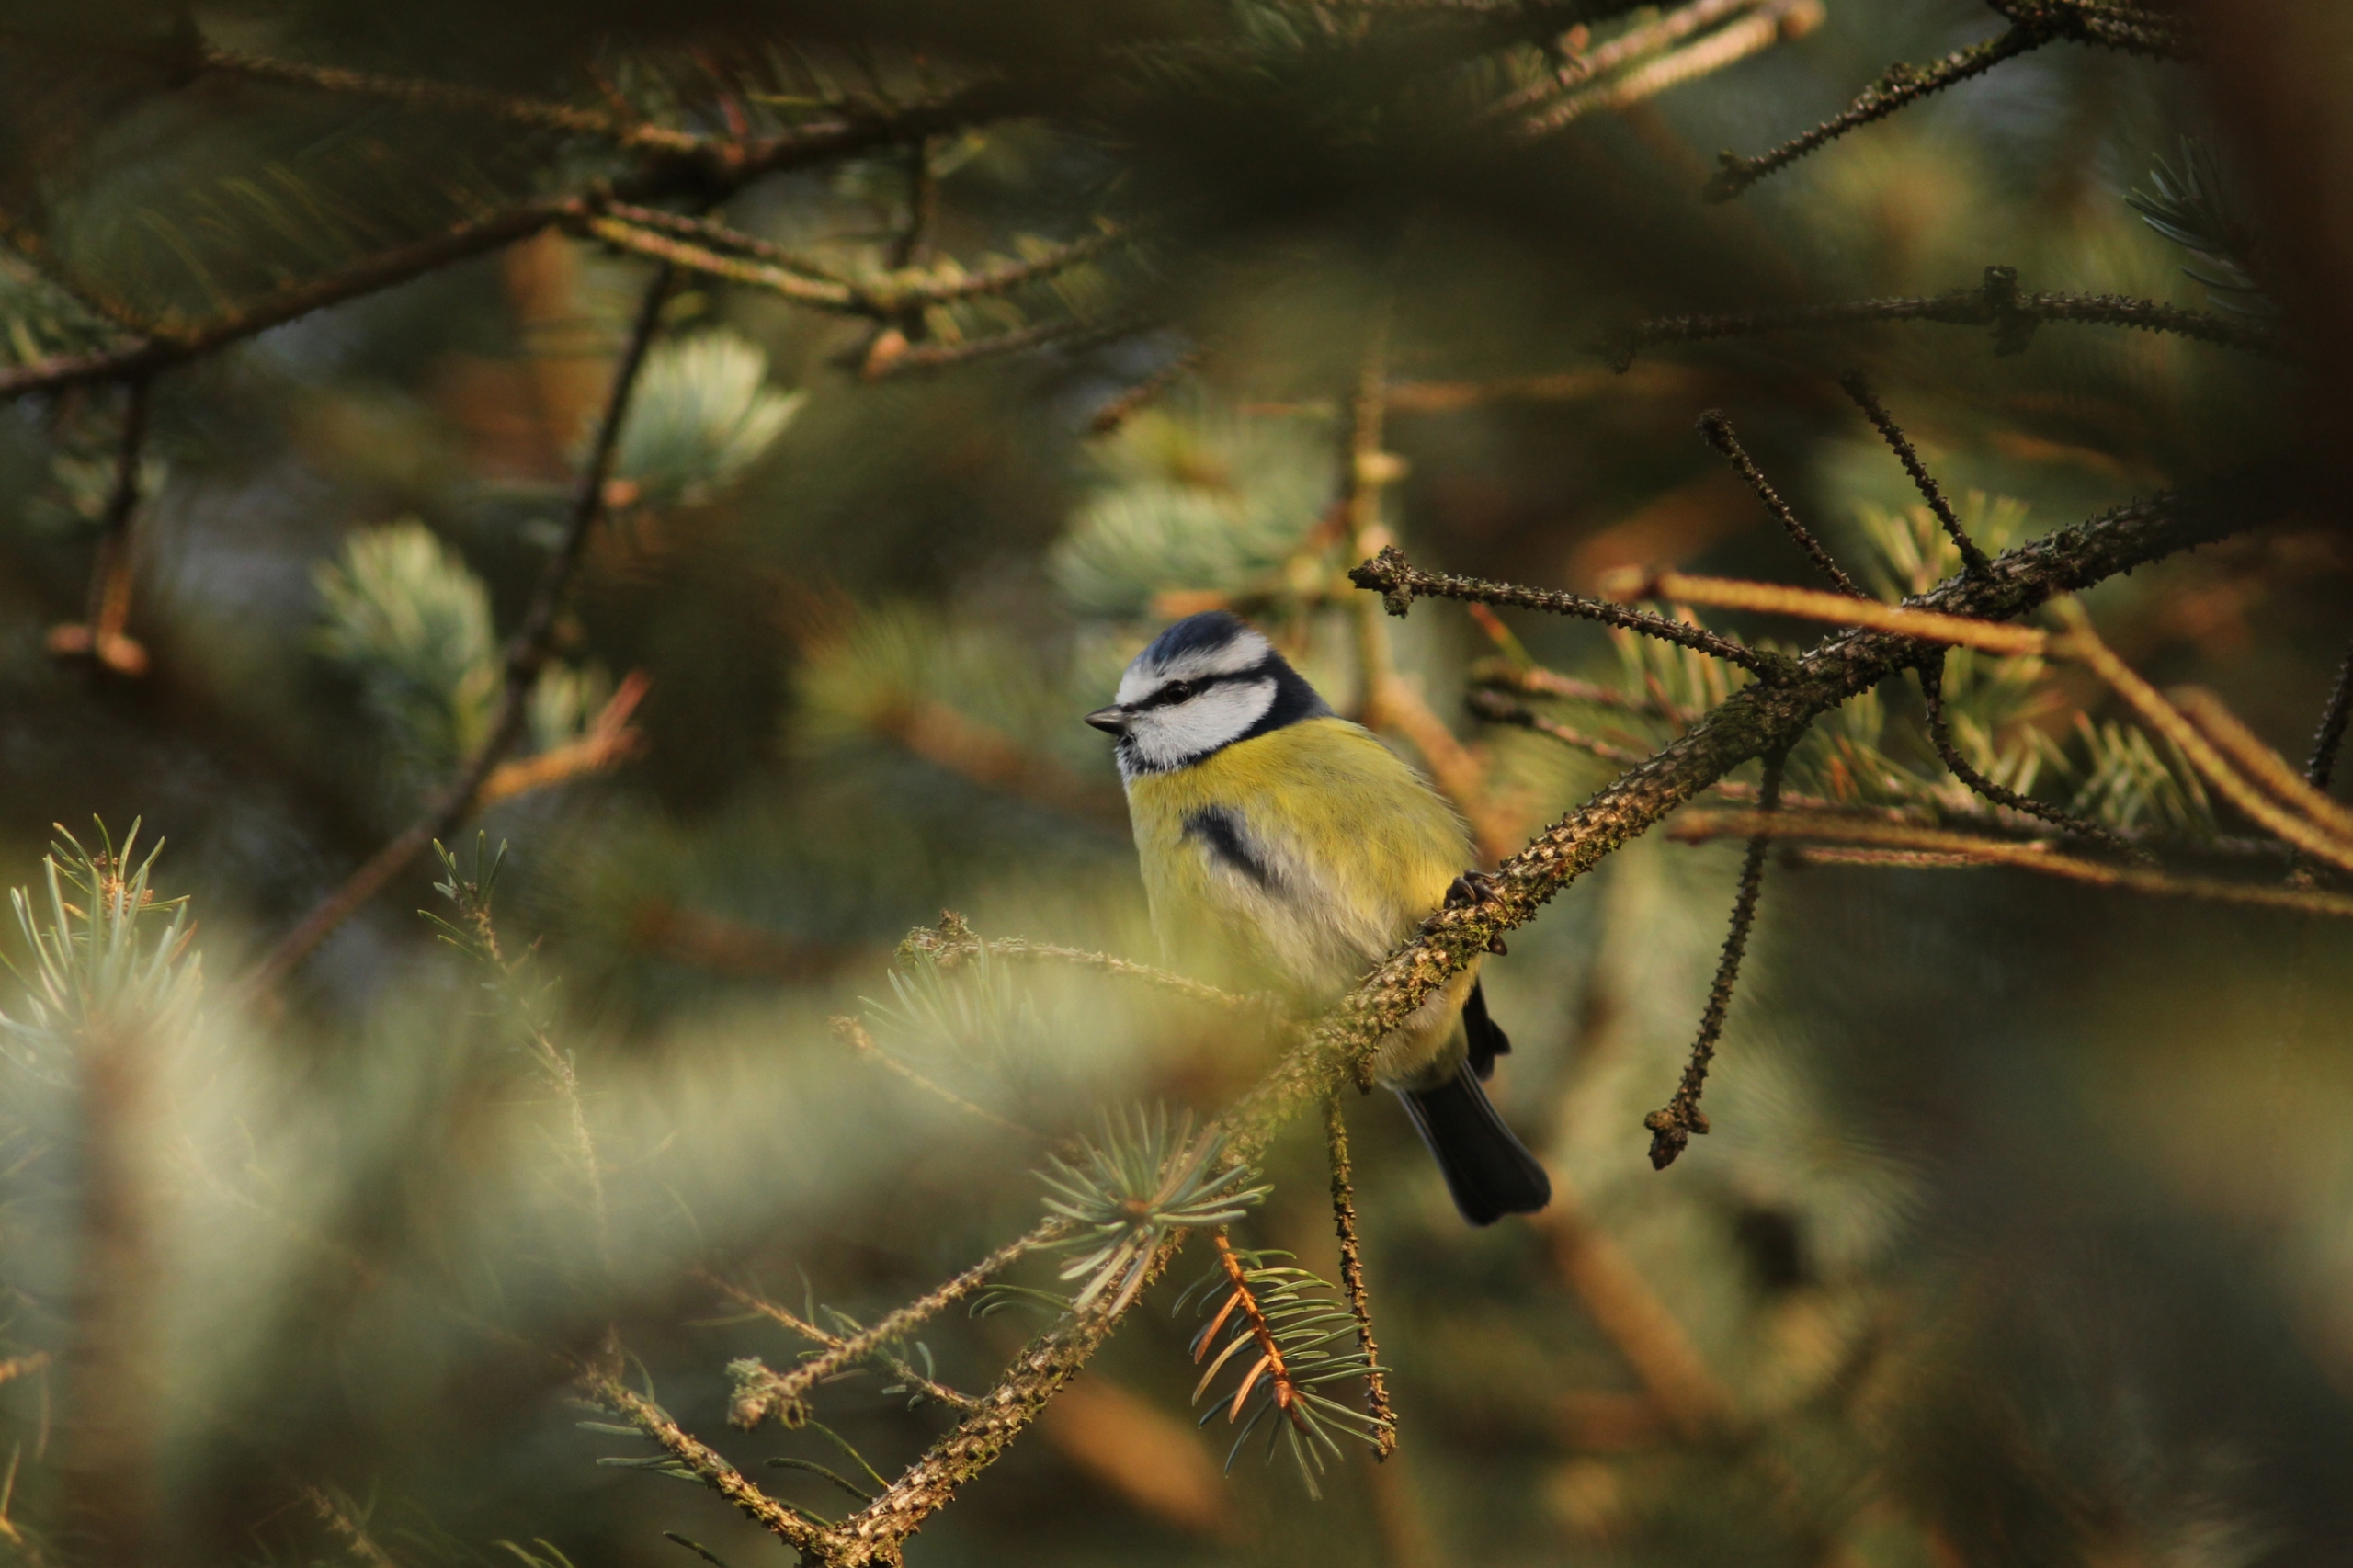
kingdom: Animalia
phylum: Chordata
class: Aves
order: Passeriformes
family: Paridae
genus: Cyanistes
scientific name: Cyanistes caeruleus
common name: Blåmejse
